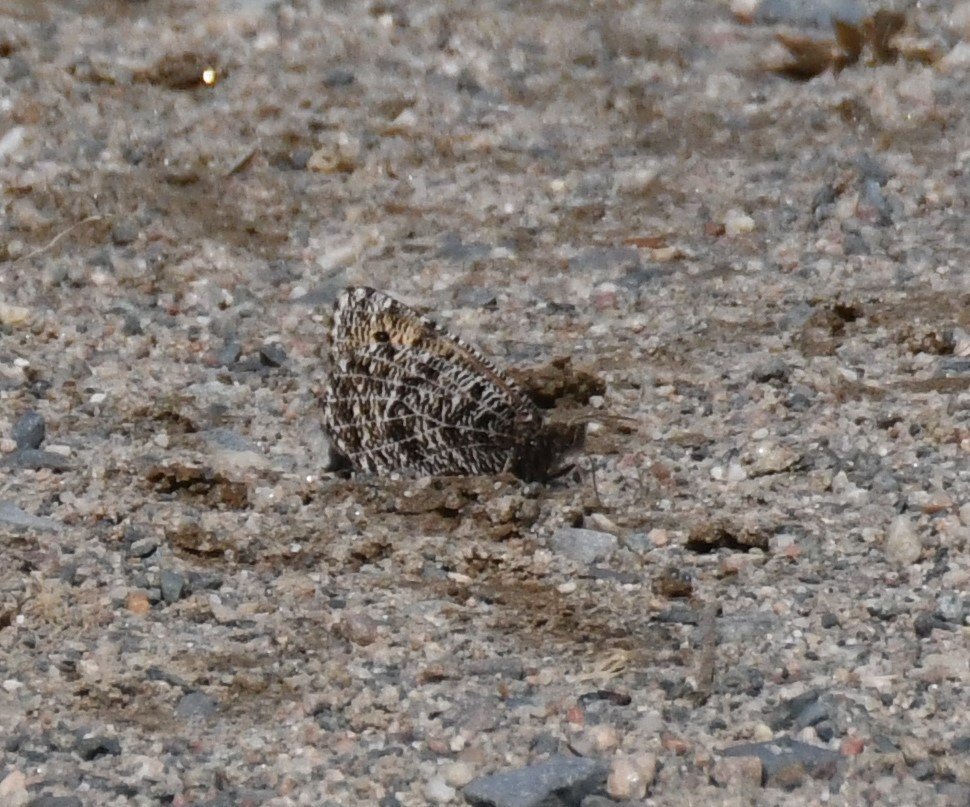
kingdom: Animalia
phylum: Arthropoda
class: Insecta
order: Lepidoptera
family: Nymphalidae
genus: Oeneis
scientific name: Oeneis chryxus
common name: Chryxus Arctic
